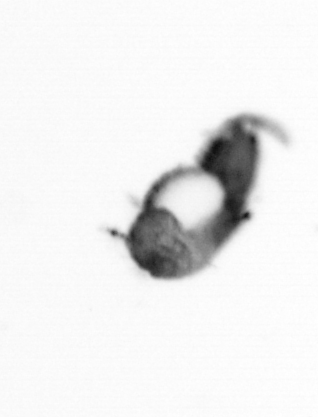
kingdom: Animalia
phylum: Annelida
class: Polychaeta
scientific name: Polychaeta
